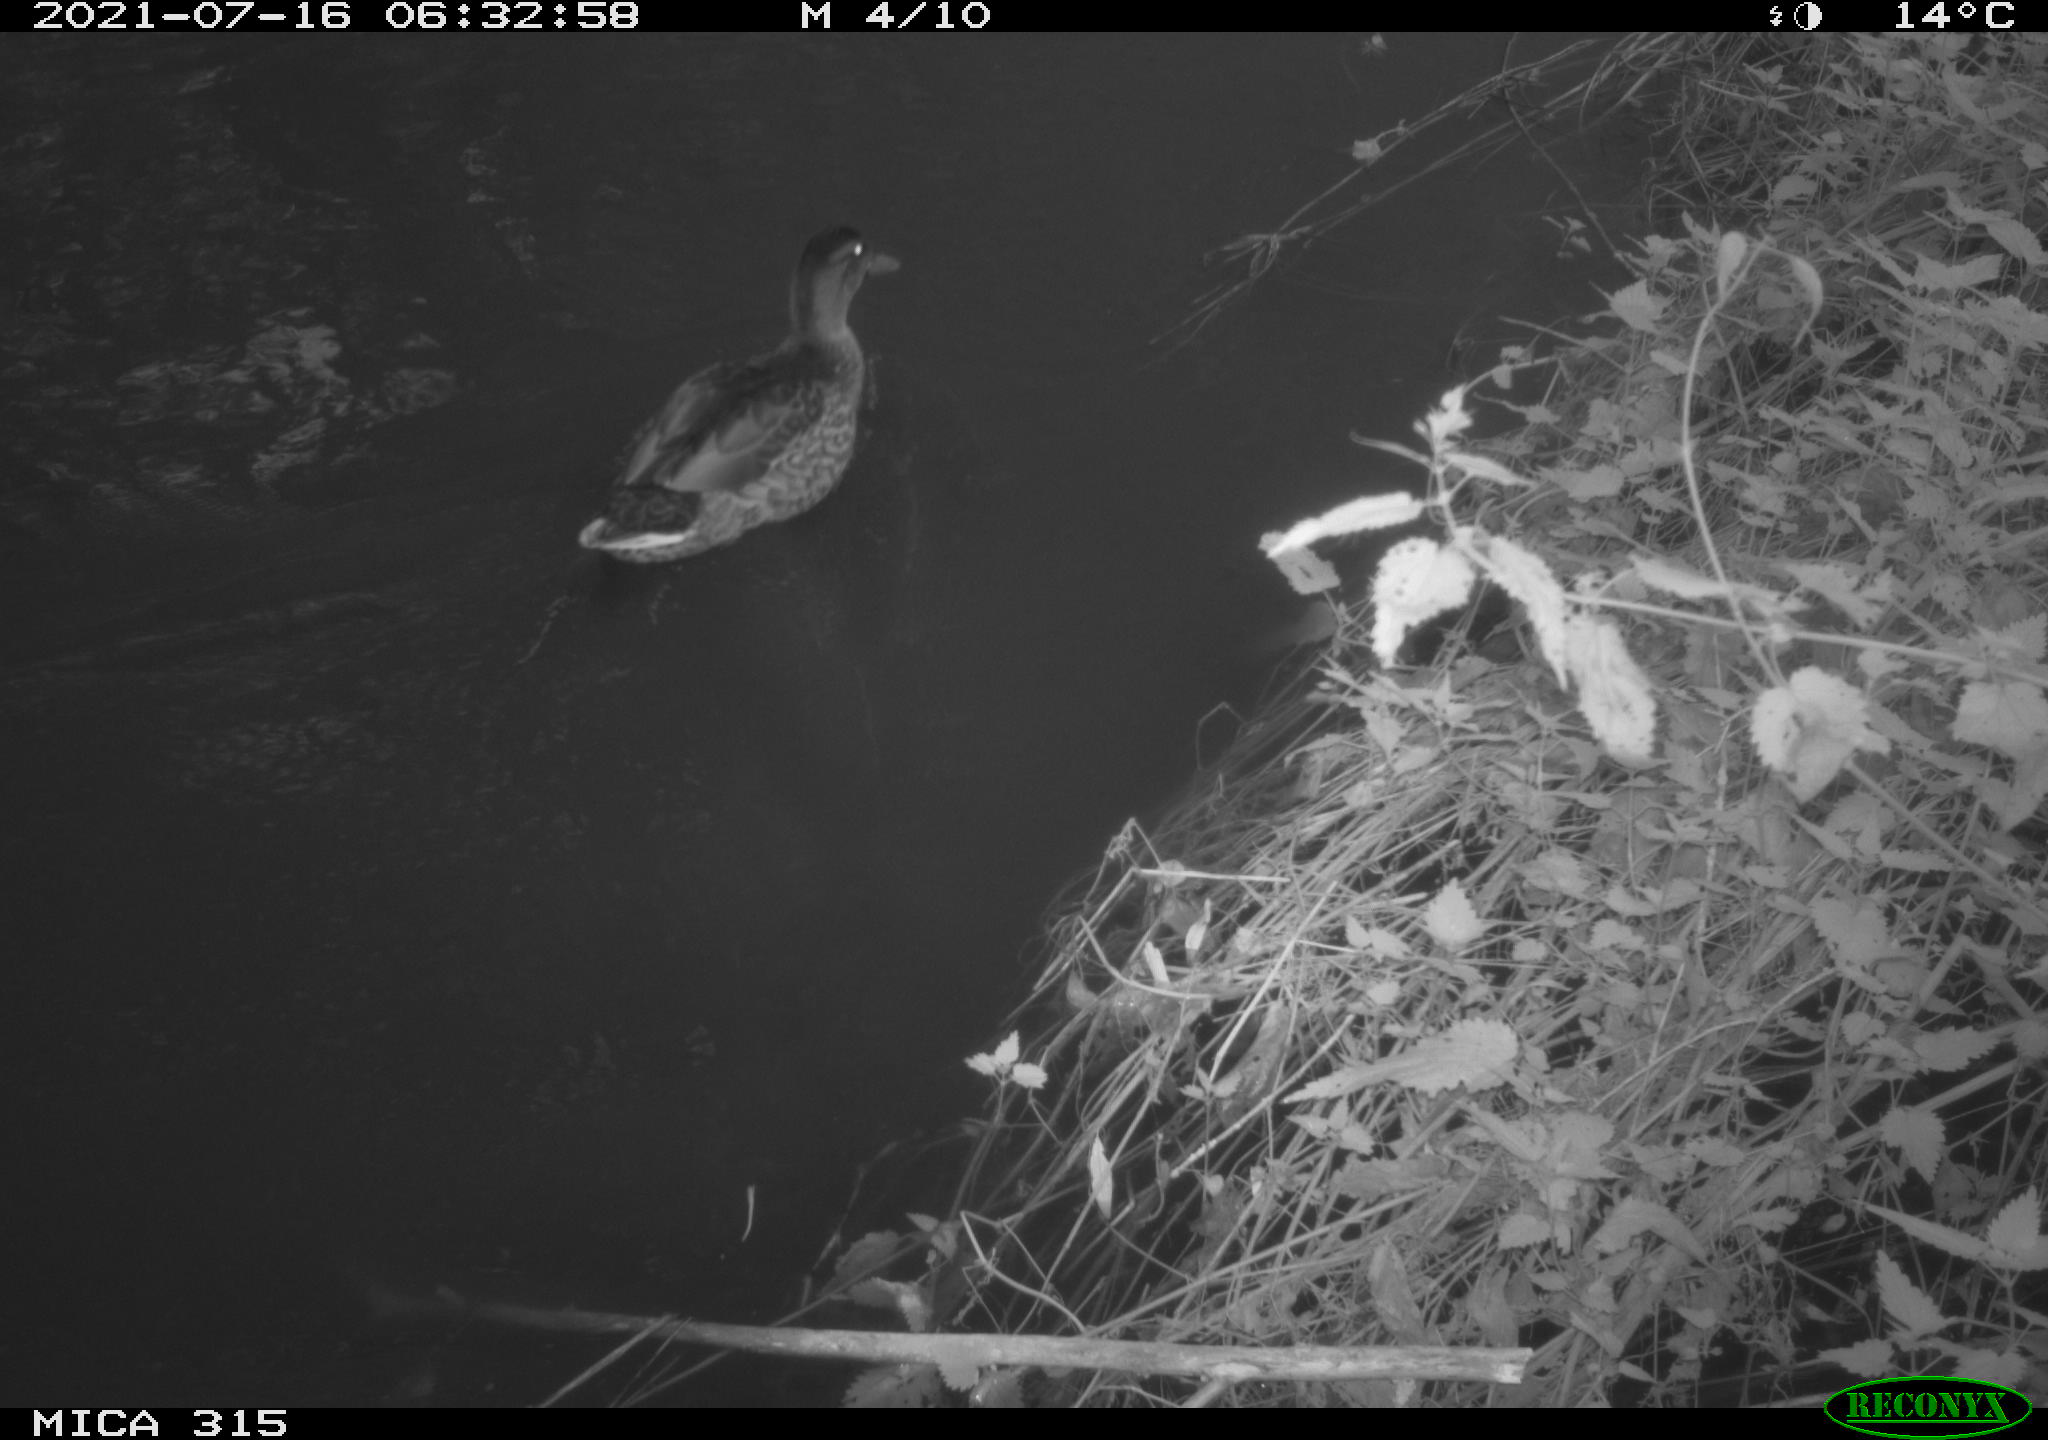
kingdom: Animalia
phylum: Chordata
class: Aves
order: Anseriformes
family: Anatidae
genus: Anas
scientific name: Anas platyrhynchos
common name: Mallard
